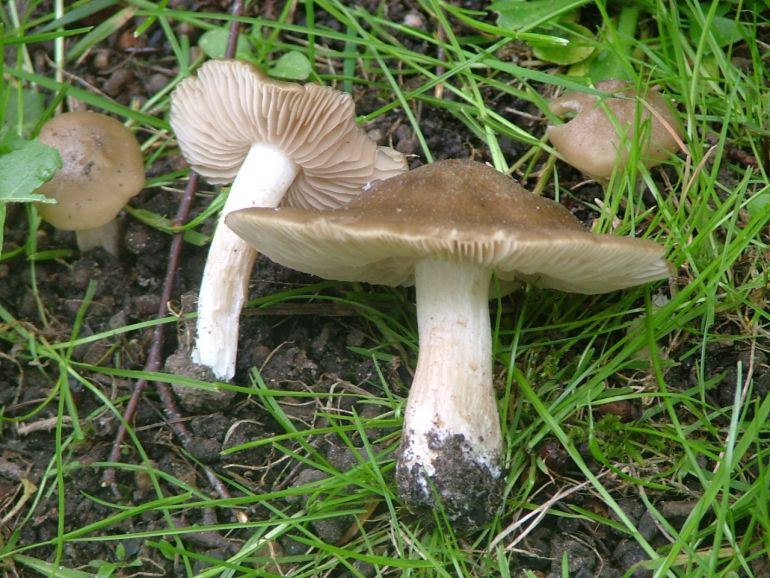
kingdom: Fungi
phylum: Basidiomycota
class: Agaricomycetes
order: Agaricales
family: Entolomataceae
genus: Entoloma
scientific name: Entoloma clypeatum
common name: flammet rødblad
